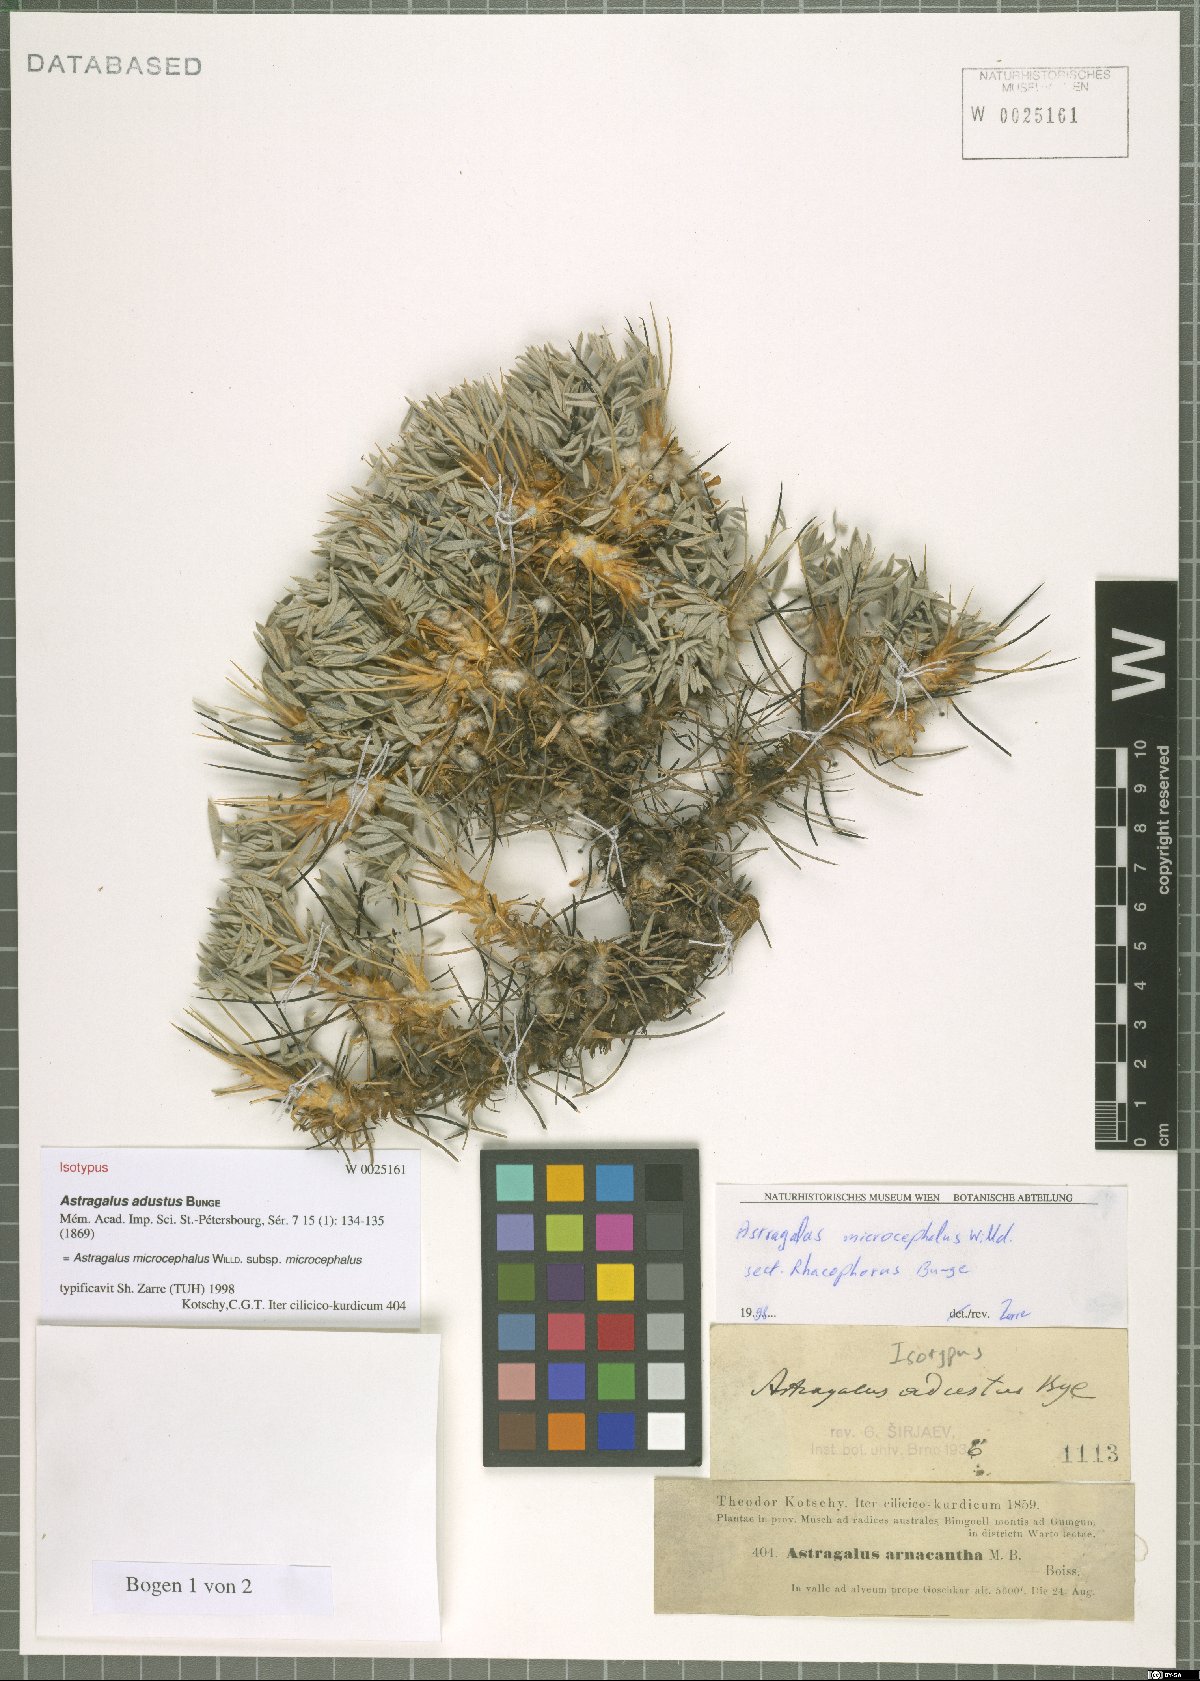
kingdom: Plantae
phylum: Tracheophyta
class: Magnoliopsida
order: Fabales
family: Fabaceae
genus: Astragalus
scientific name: Astragalus microcephalus
